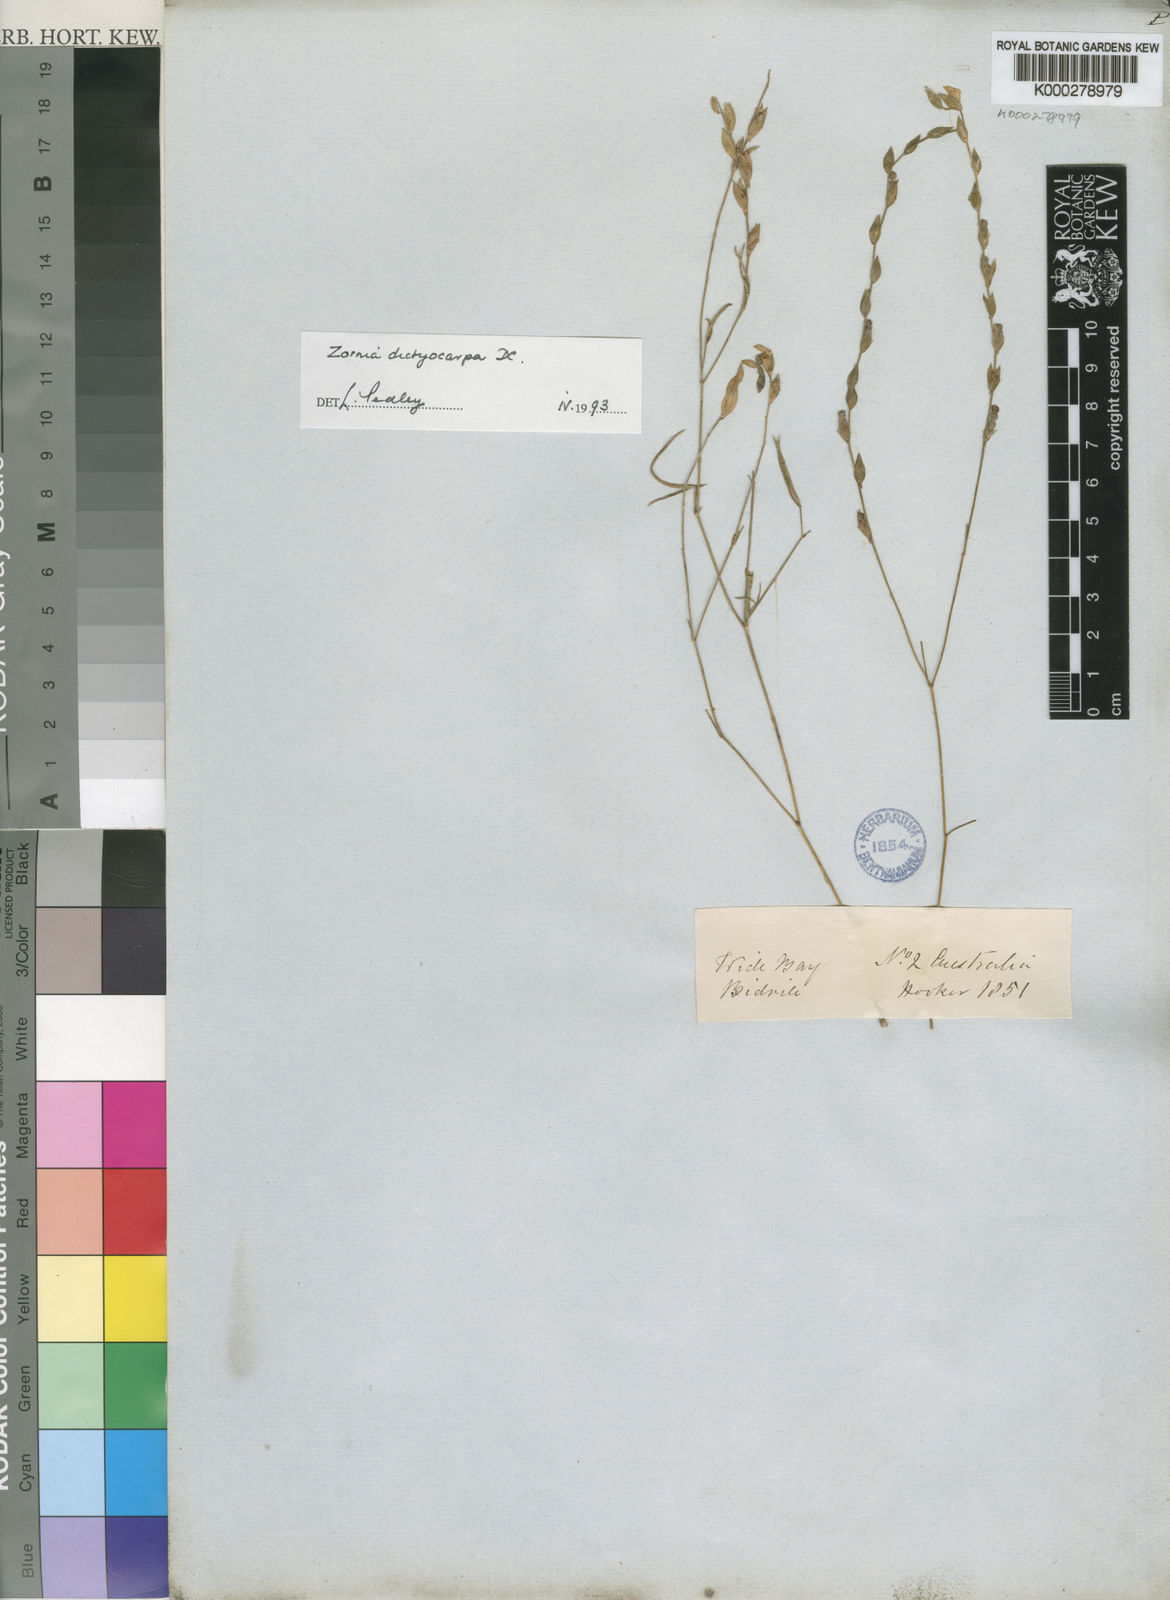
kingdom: Plantae
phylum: Tracheophyta
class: Magnoliopsida
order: Fabales
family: Fabaceae
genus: Zornia
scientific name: Zornia dyctiocarpa
